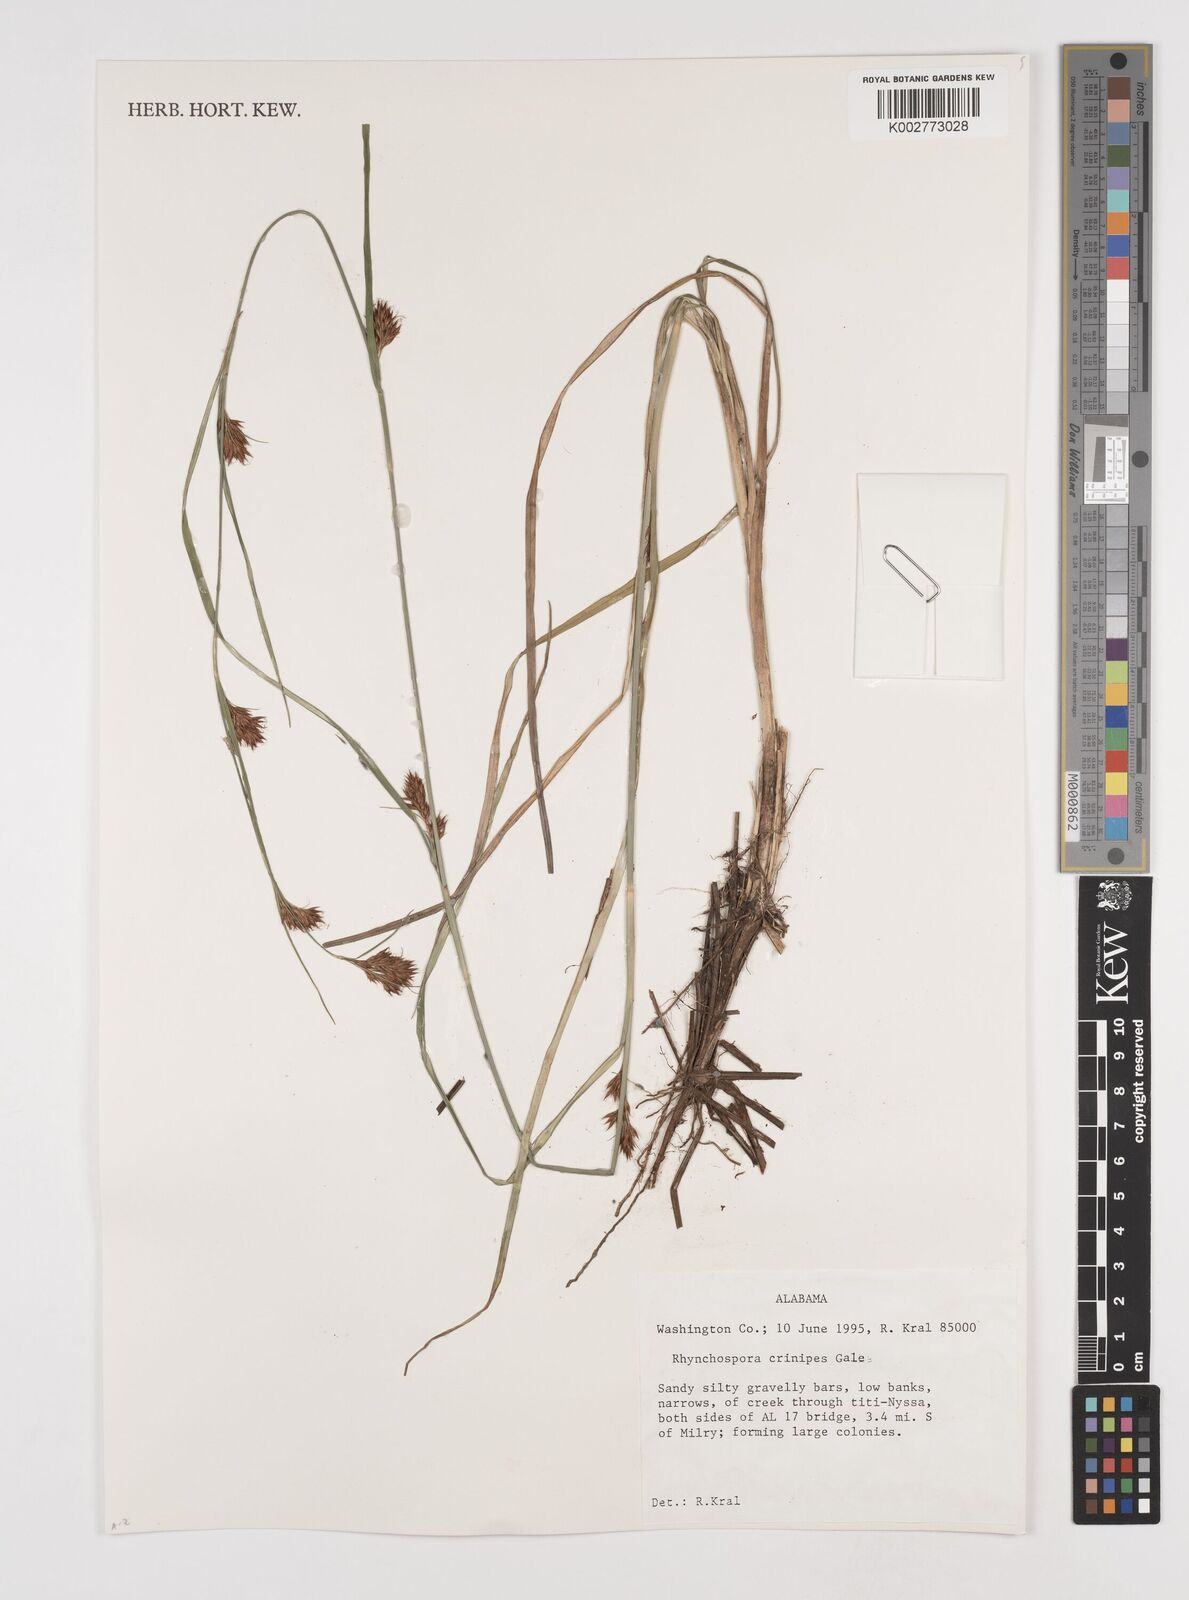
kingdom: Plantae
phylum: Tracheophyta
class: Liliopsida
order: Poales
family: Cyperaceae
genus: Rhynchospora
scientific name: Rhynchospora crinipes
